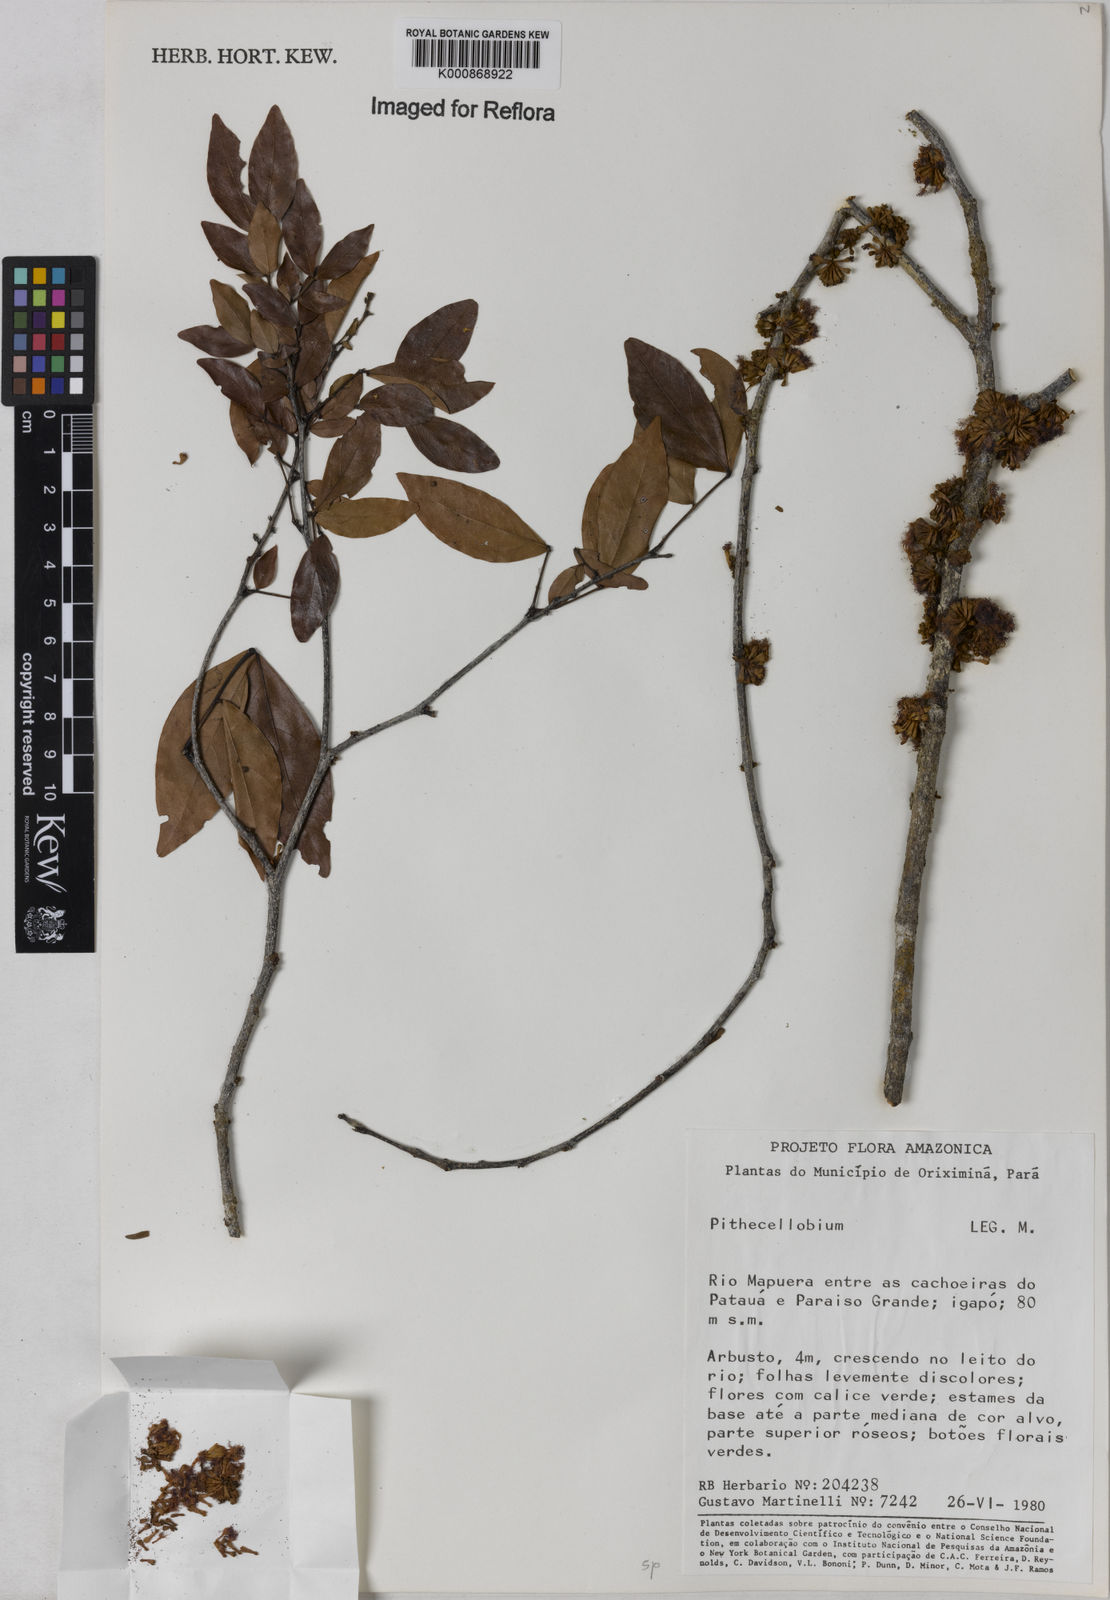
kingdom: Plantae
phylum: Tracheophyta
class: Magnoliopsida
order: Fabales
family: Fabaceae
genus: Zygia
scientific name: Zygia
